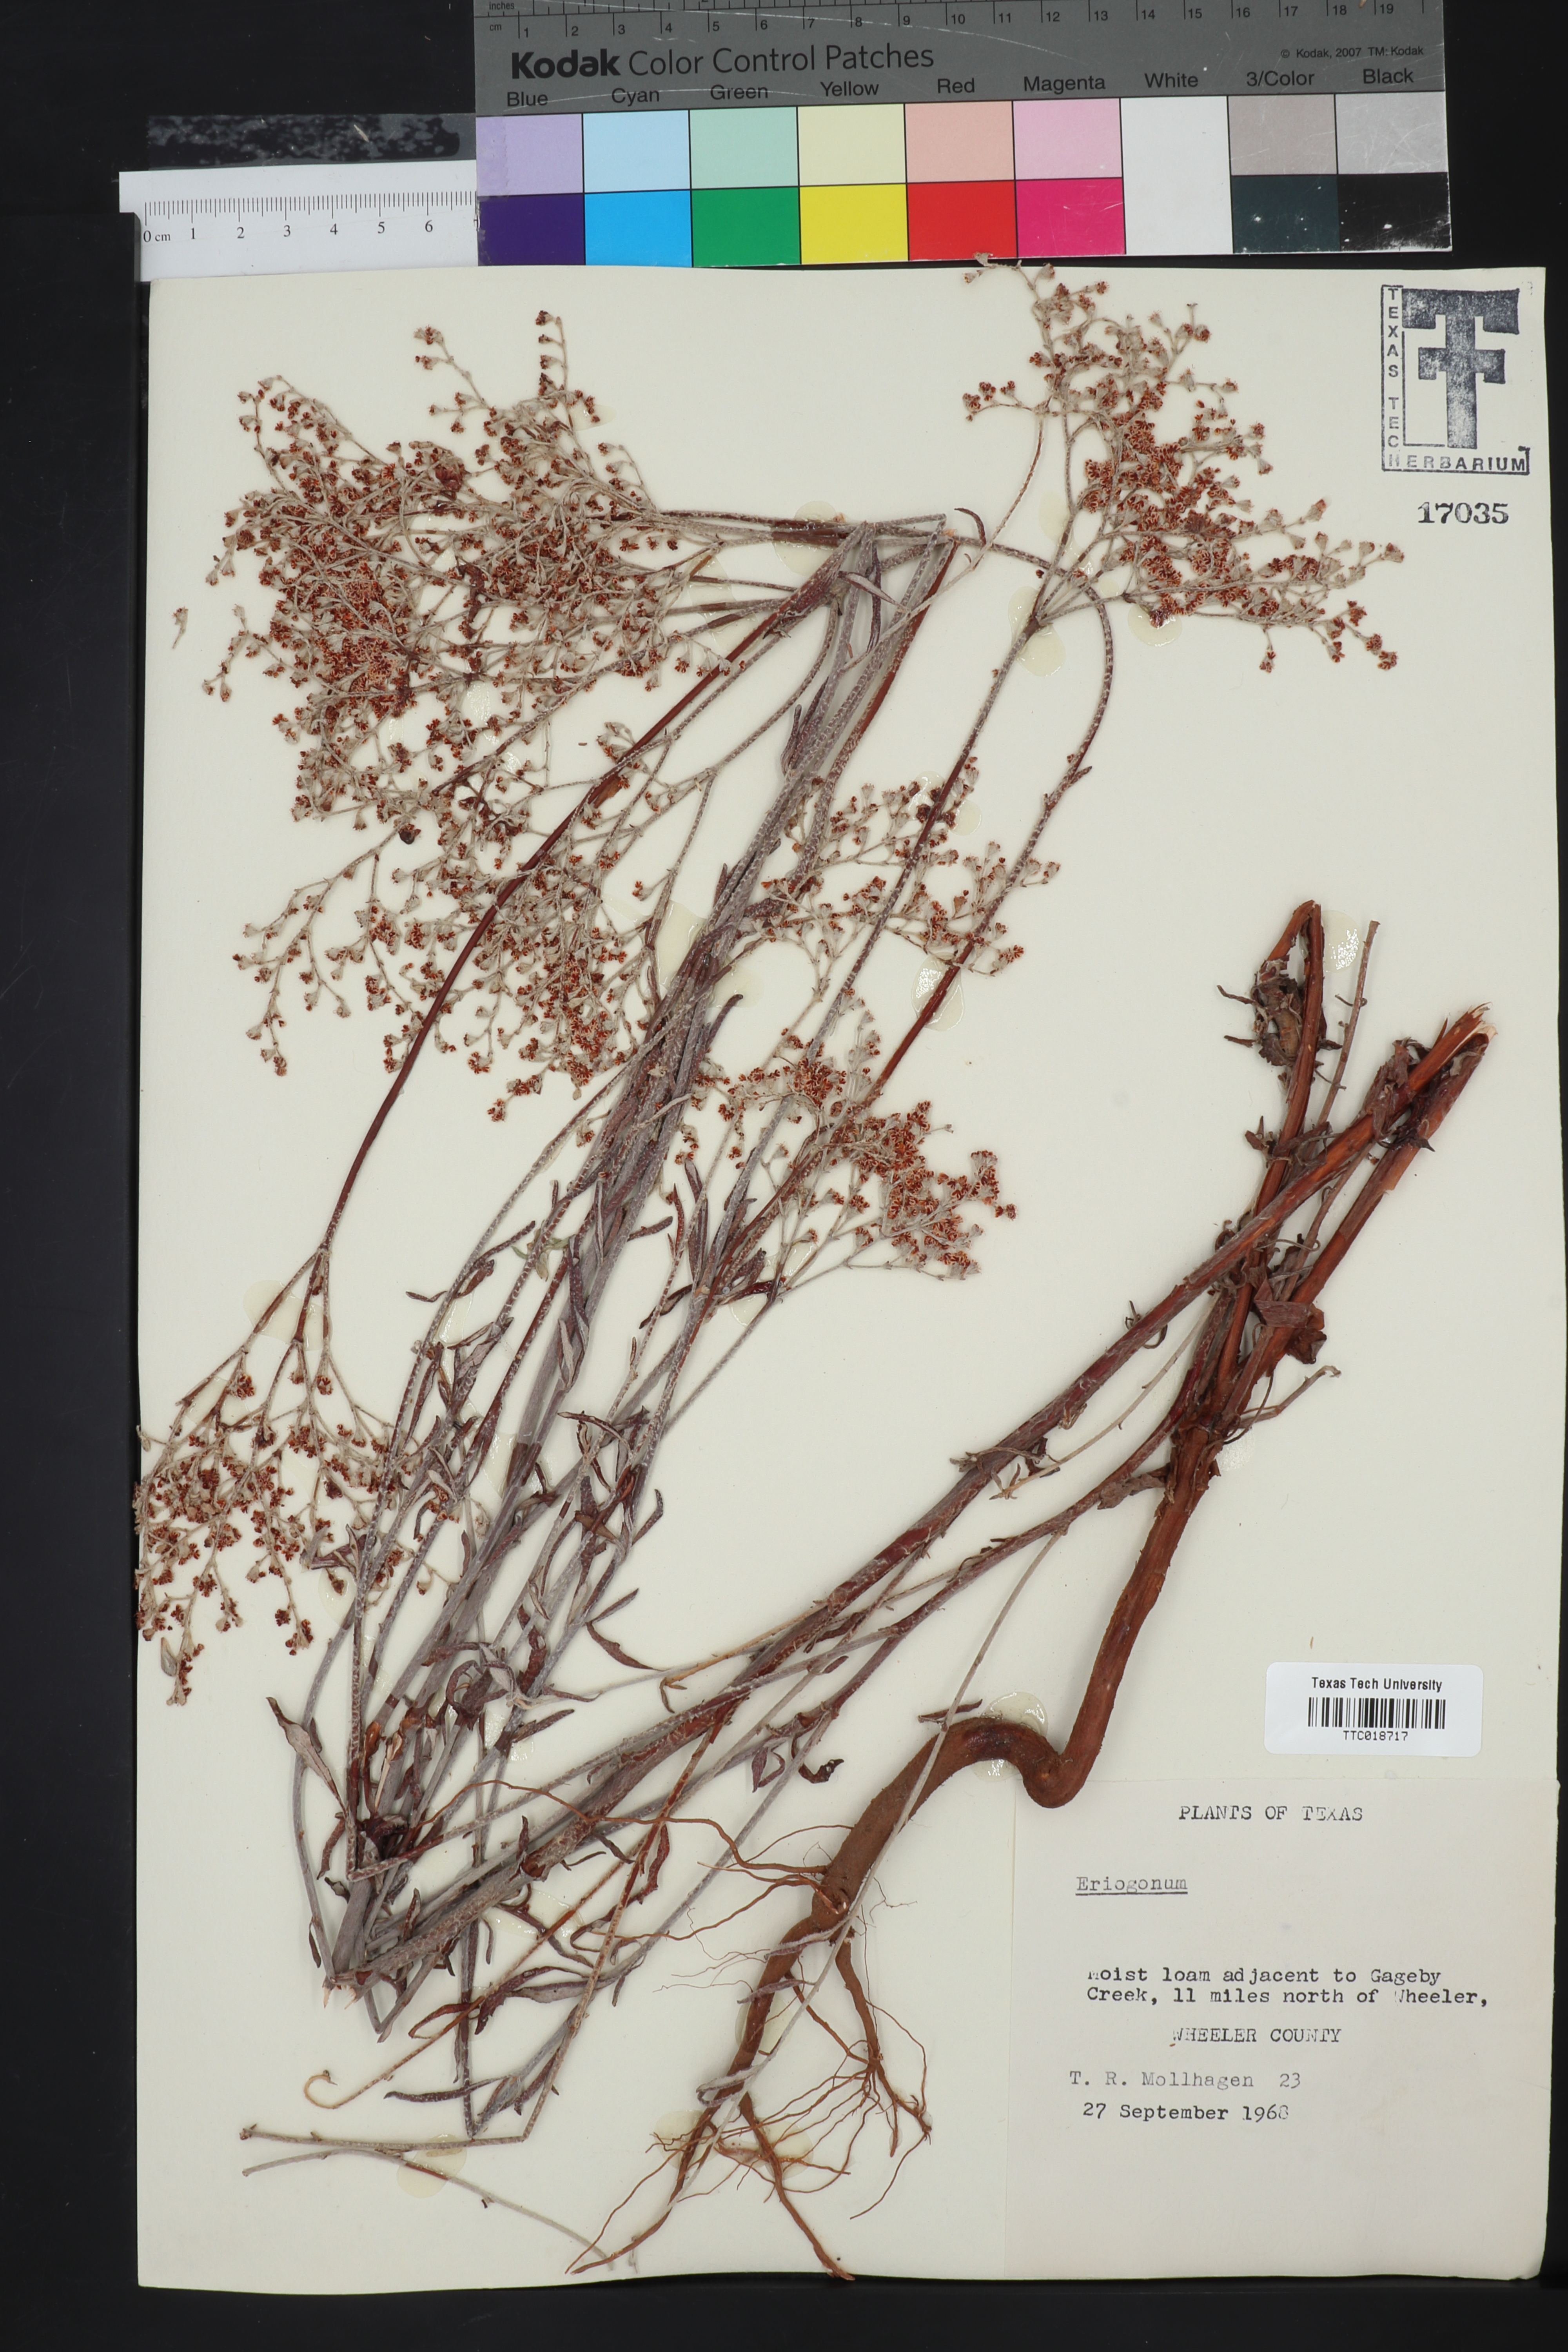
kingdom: Plantae
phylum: Tracheophyta
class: Magnoliopsida
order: Caryophyllales
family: Polygonaceae
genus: Eriogonum
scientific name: Eriogonum
